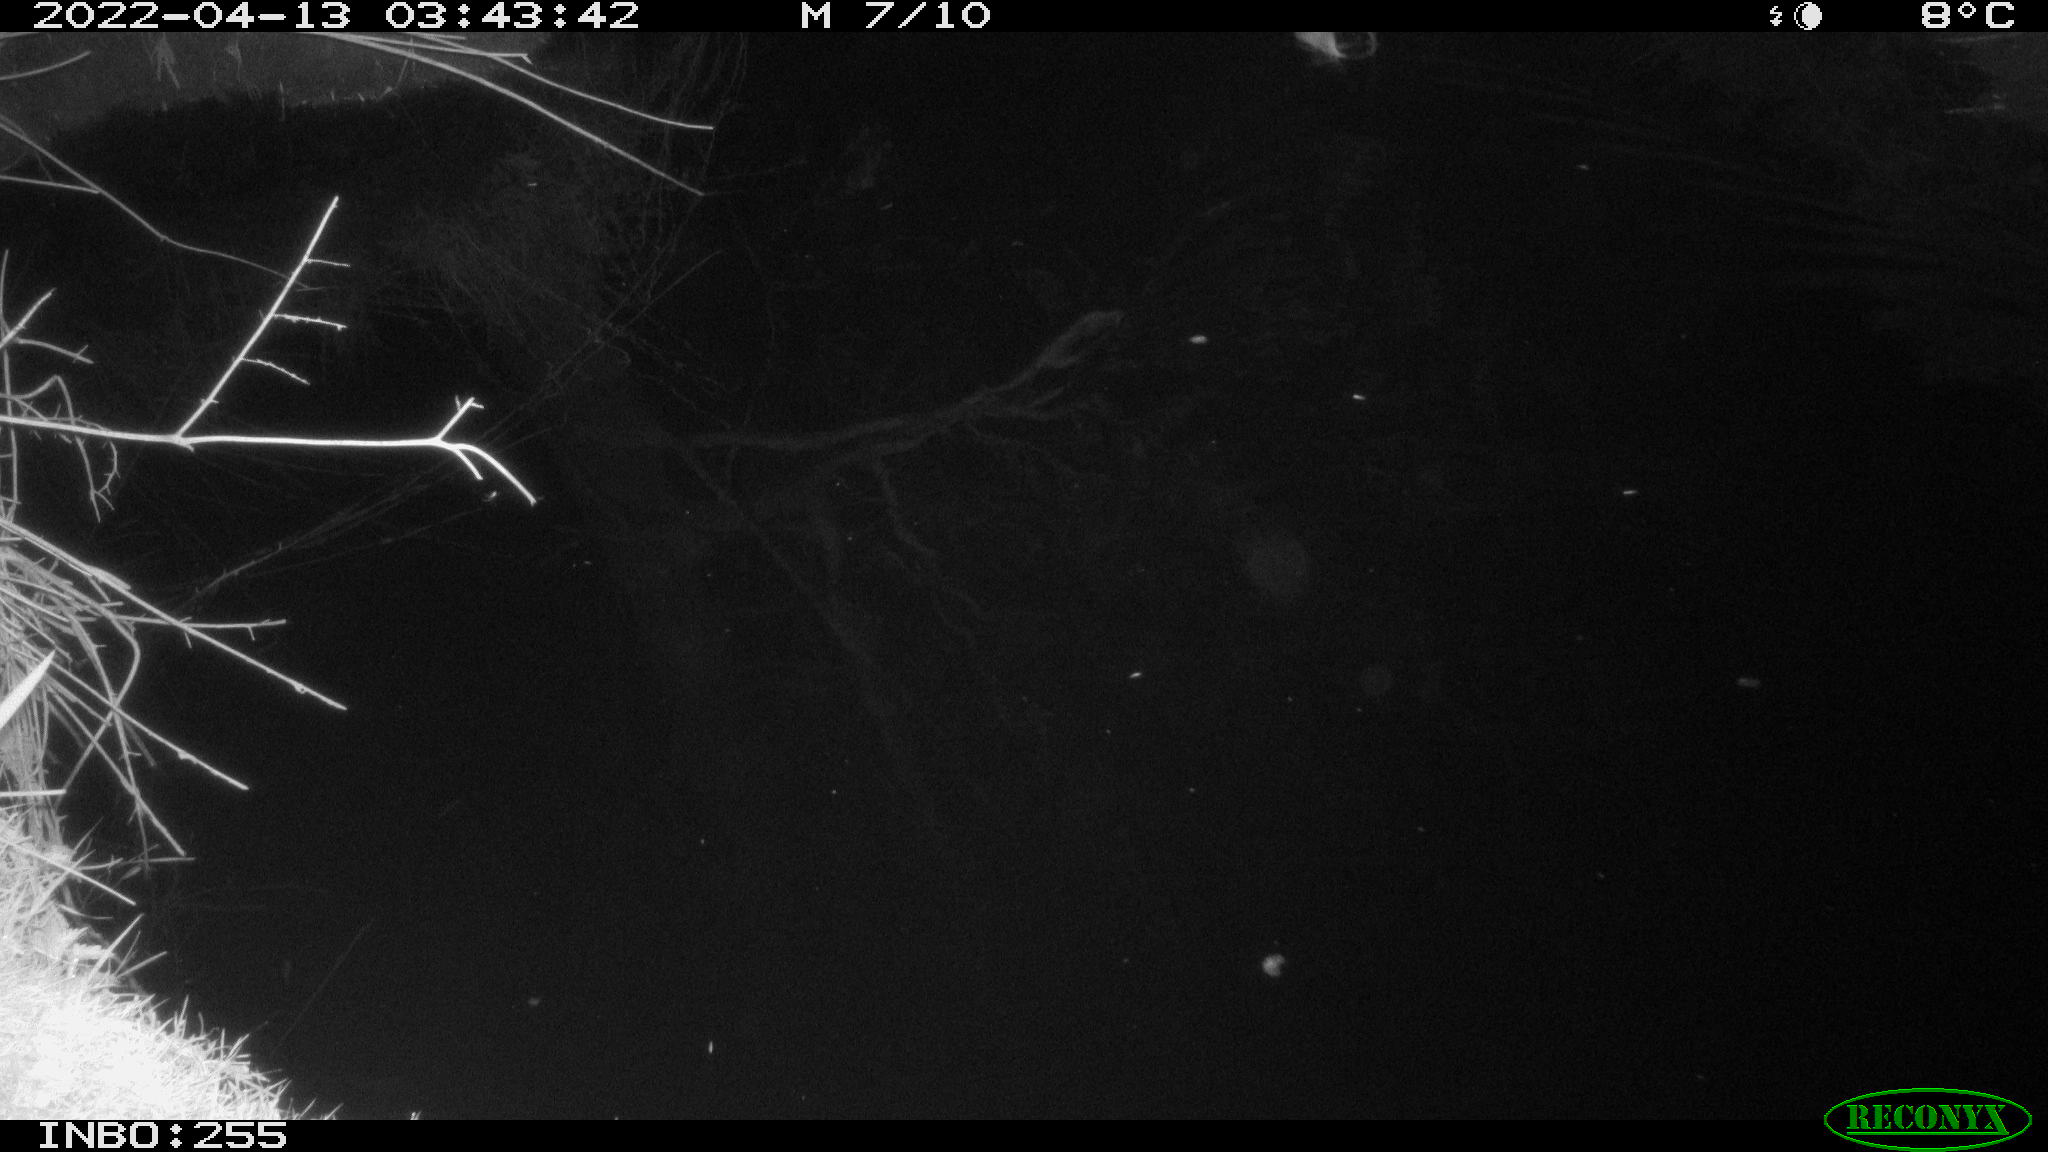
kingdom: Animalia
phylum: Chordata
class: Aves
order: Anseriformes
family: Anatidae
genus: Anas
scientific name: Anas platyrhynchos
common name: Mallard
